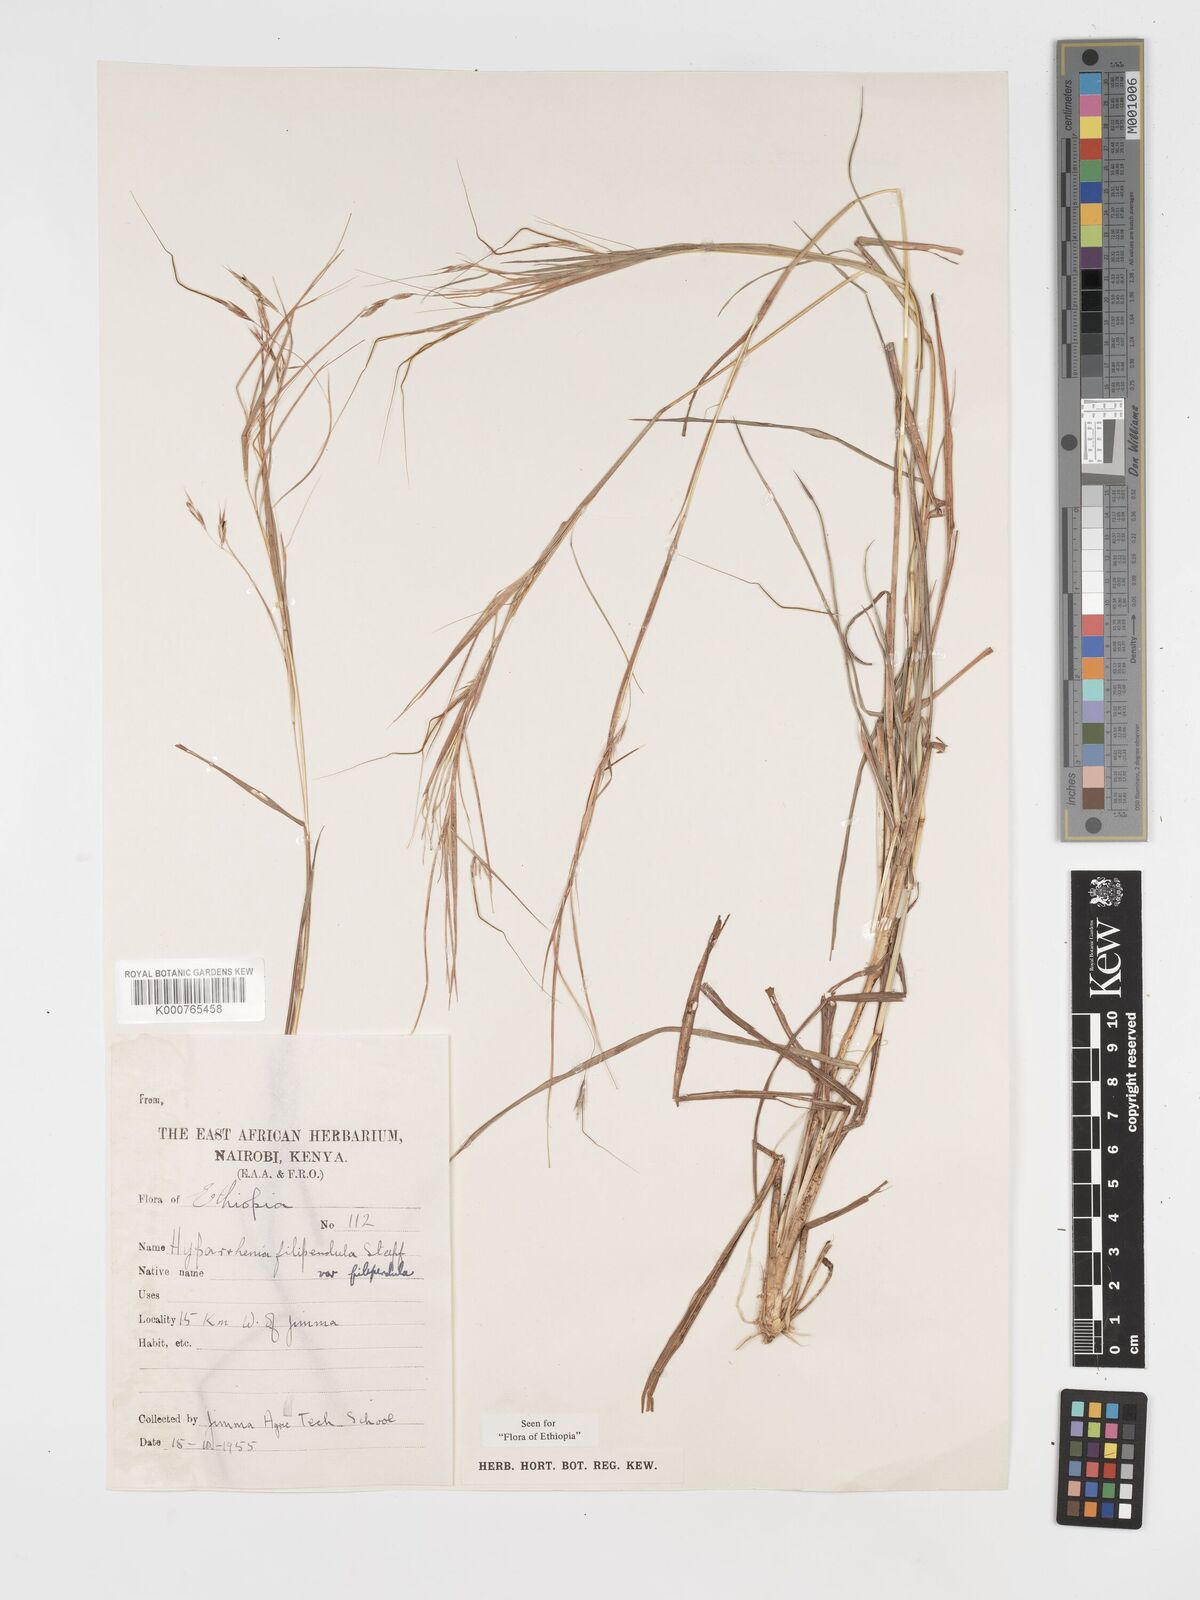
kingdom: Plantae
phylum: Tracheophyta
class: Liliopsida
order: Poales
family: Poaceae
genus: Hyparrhenia
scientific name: Hyparrhenia filipendula
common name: Tambookie grass
